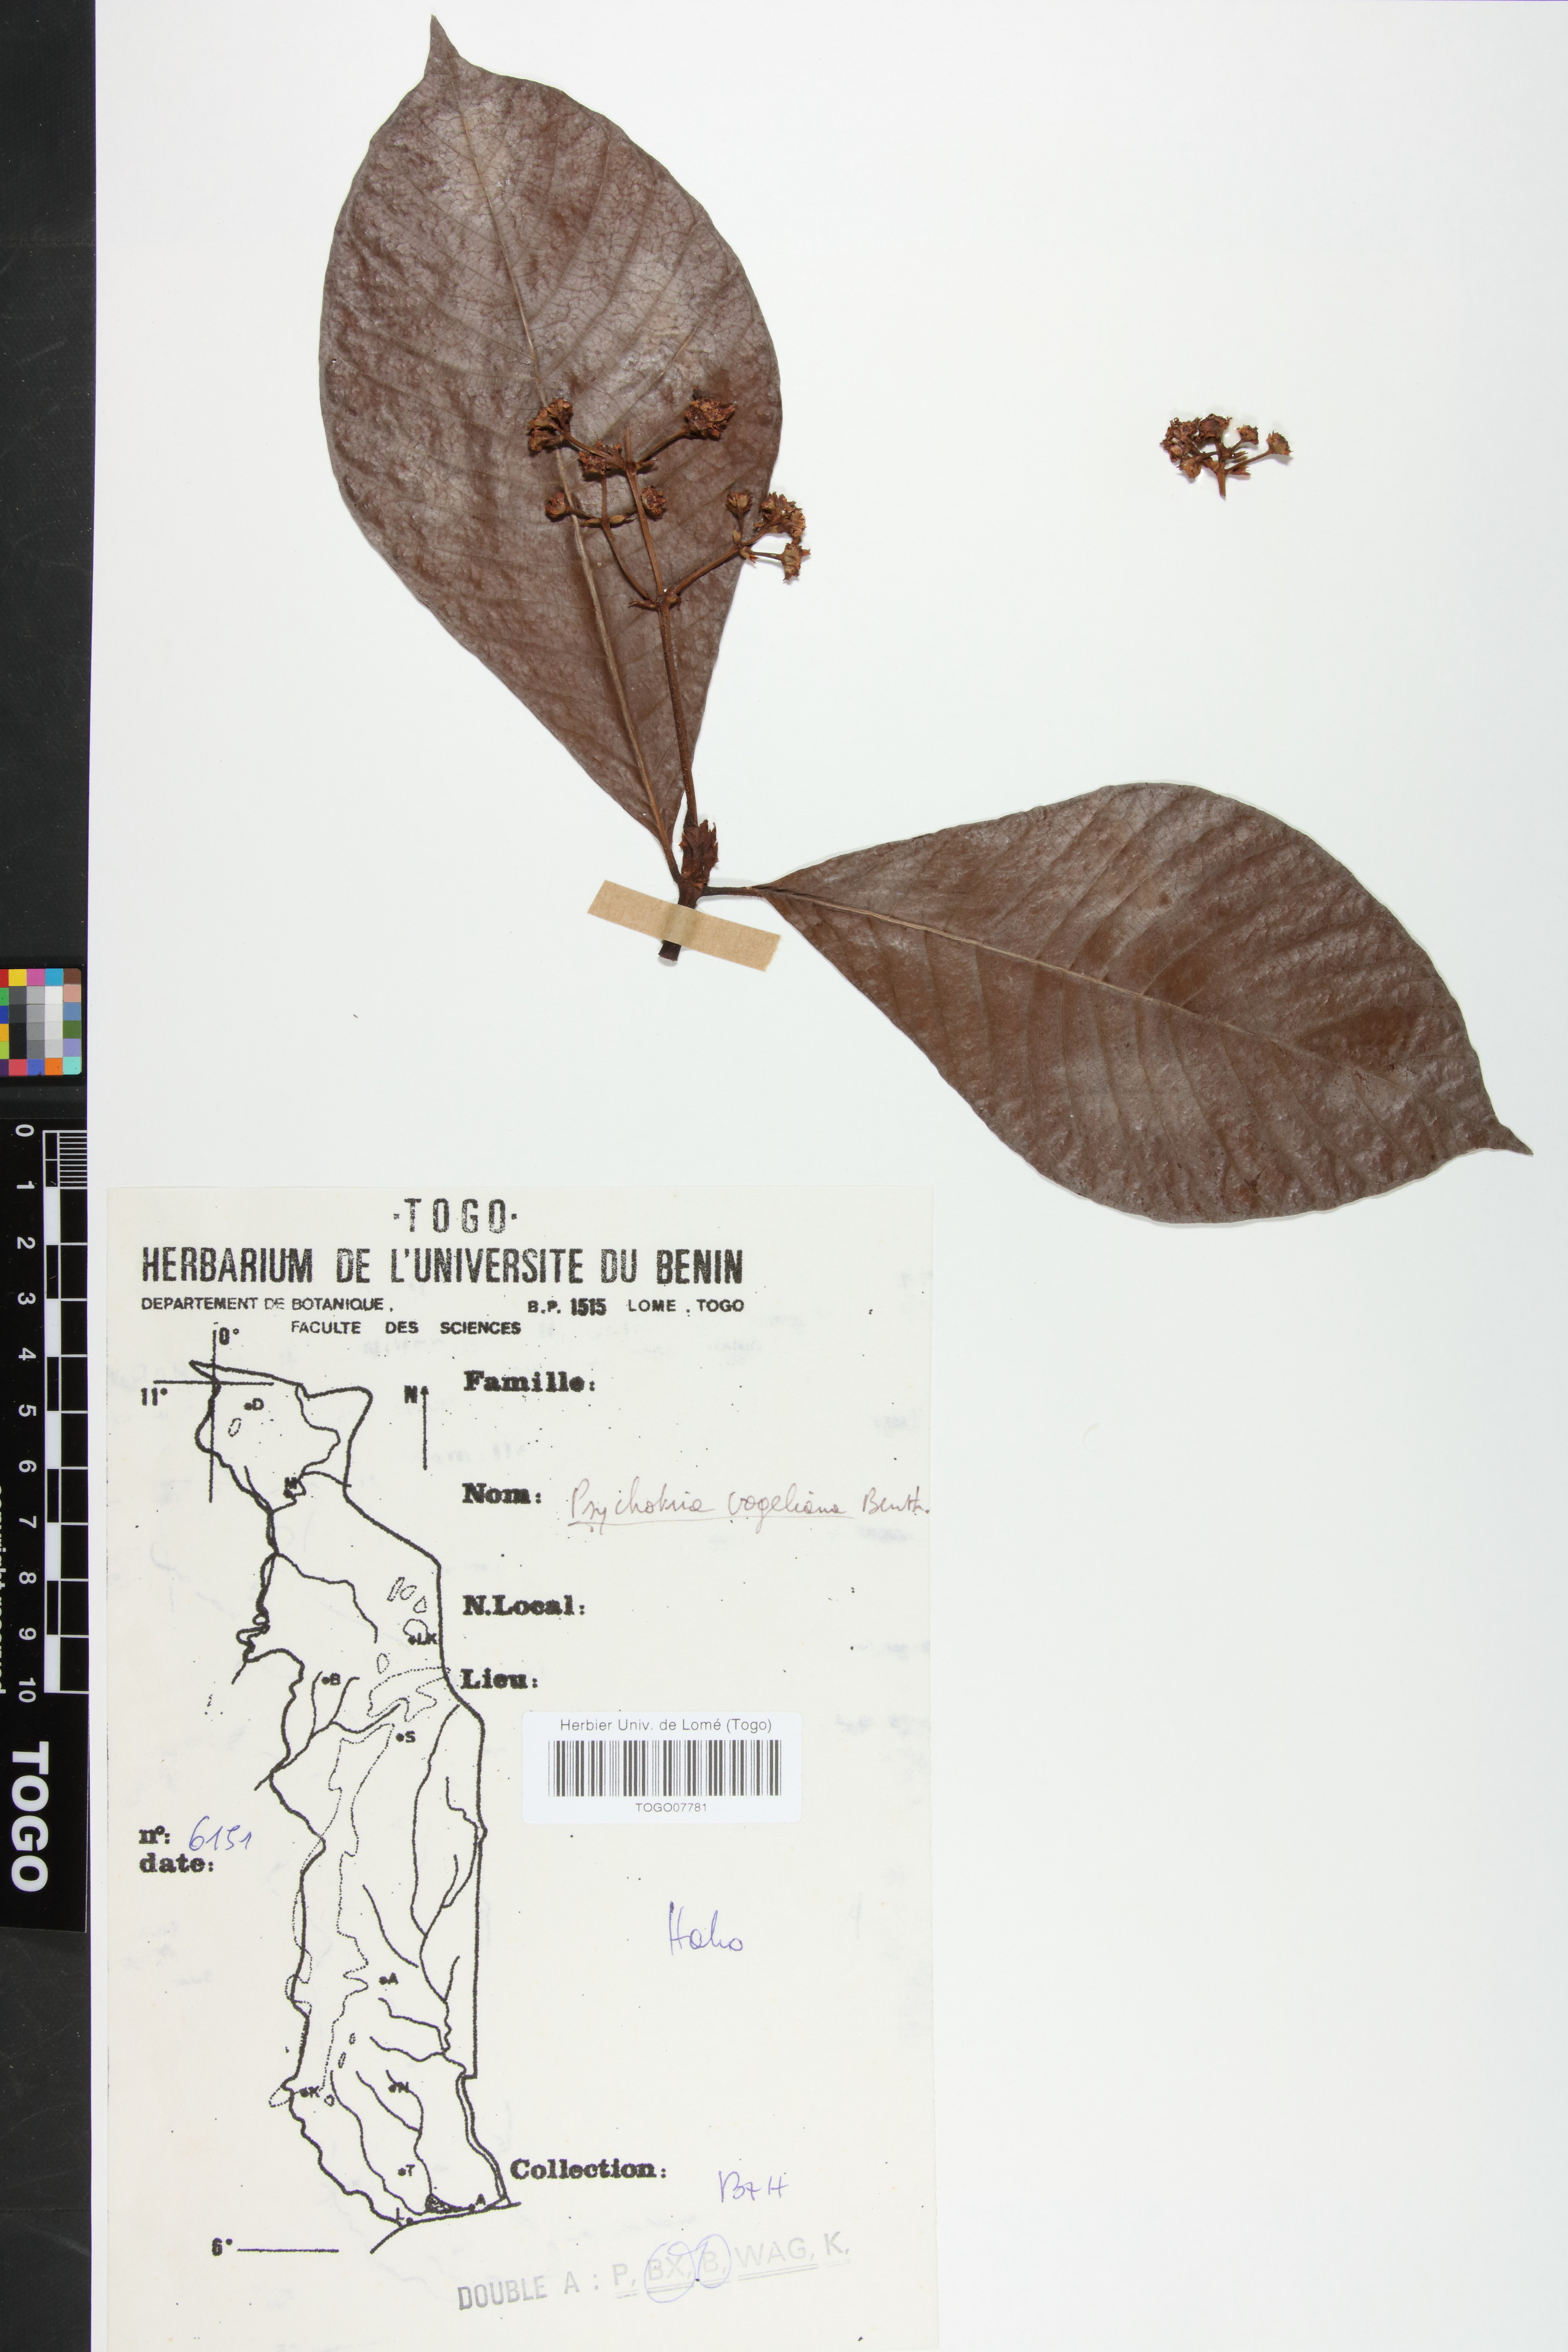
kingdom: Plantae
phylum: Tracheophyta
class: Magnoliopsida
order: Gentianales
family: Rubiaceae
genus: Psychotria
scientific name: Psychotria vogeliana
